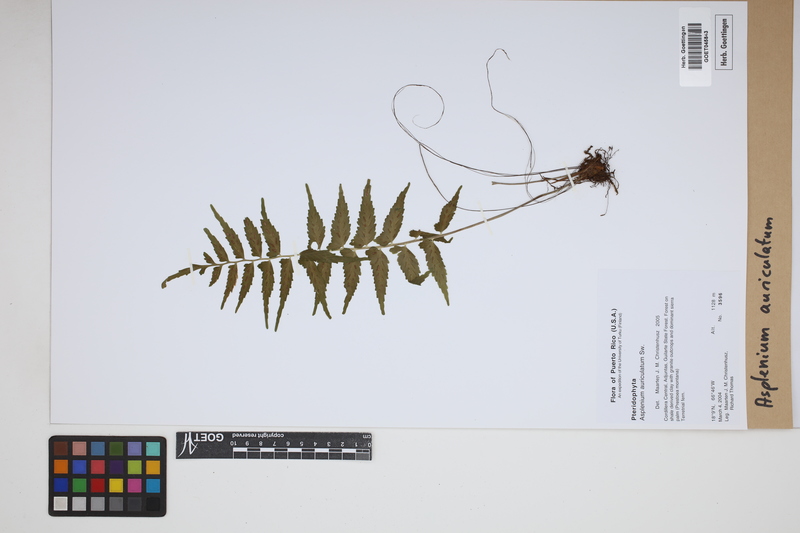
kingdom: Plantae
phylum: Tracheophyta
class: Polypodiopsida
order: Polypodiales
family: Aspleniaceae
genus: Asplenium
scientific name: Asplenium auriculatum
